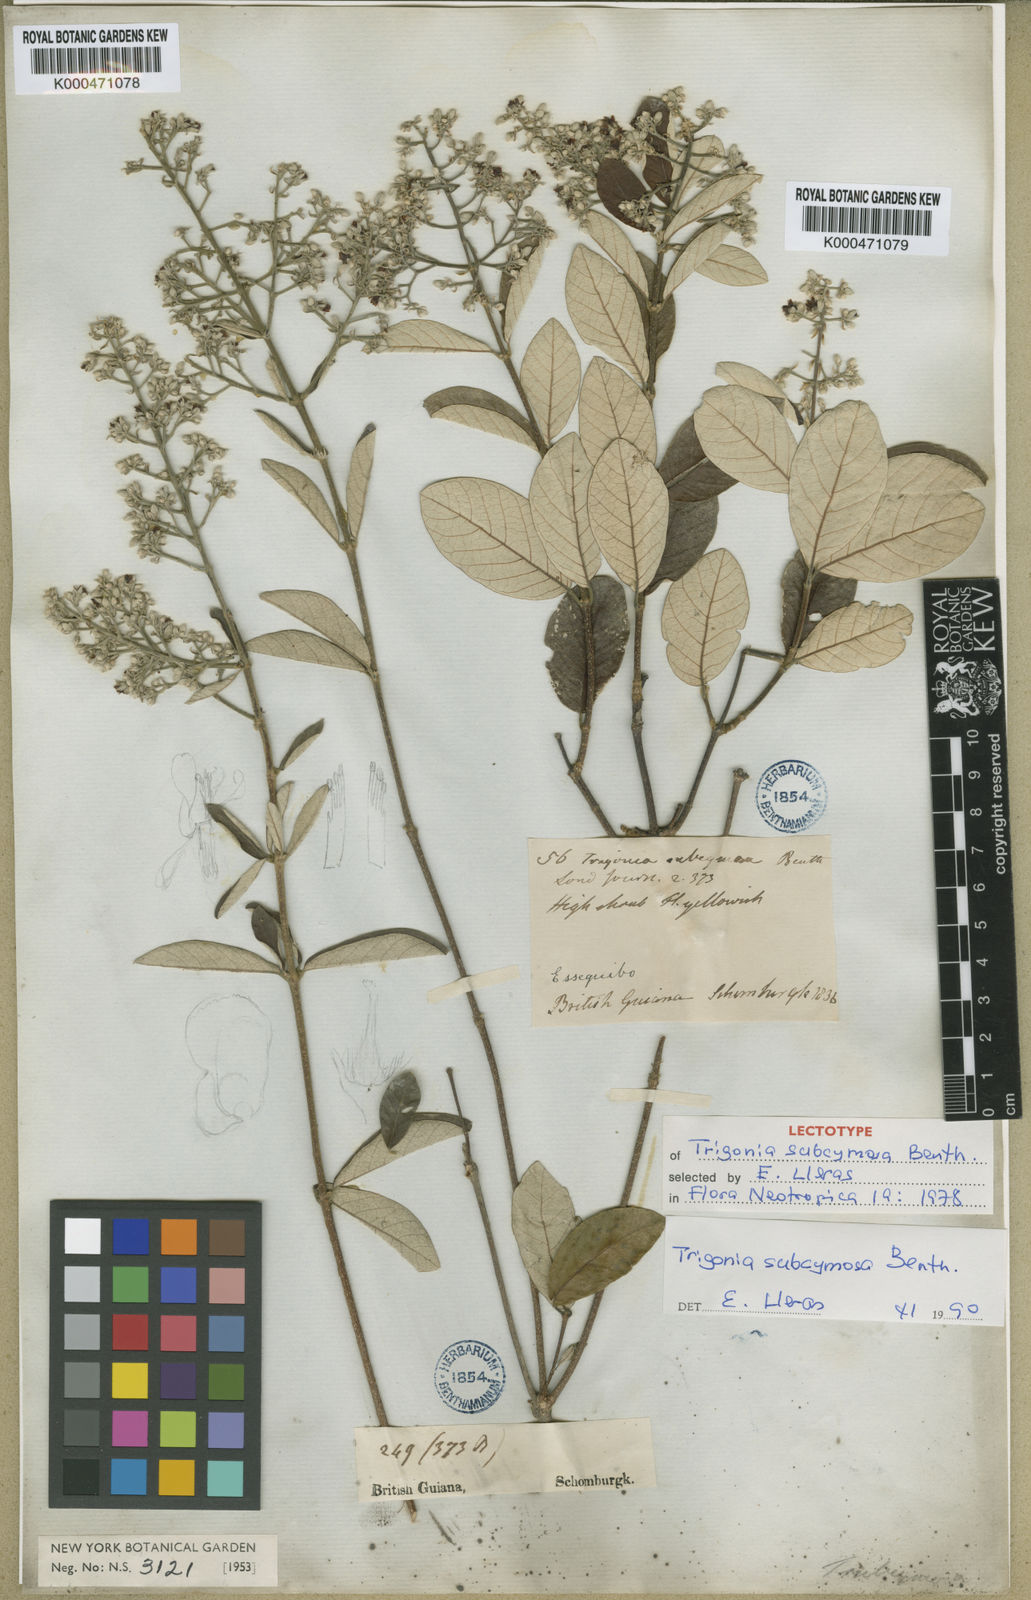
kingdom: Plantae
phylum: Tracheophyta
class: Magnoliopsida
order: Malpighiales
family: Trigoniaceae
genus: Trigonia
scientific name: Trigonia subcymosa
